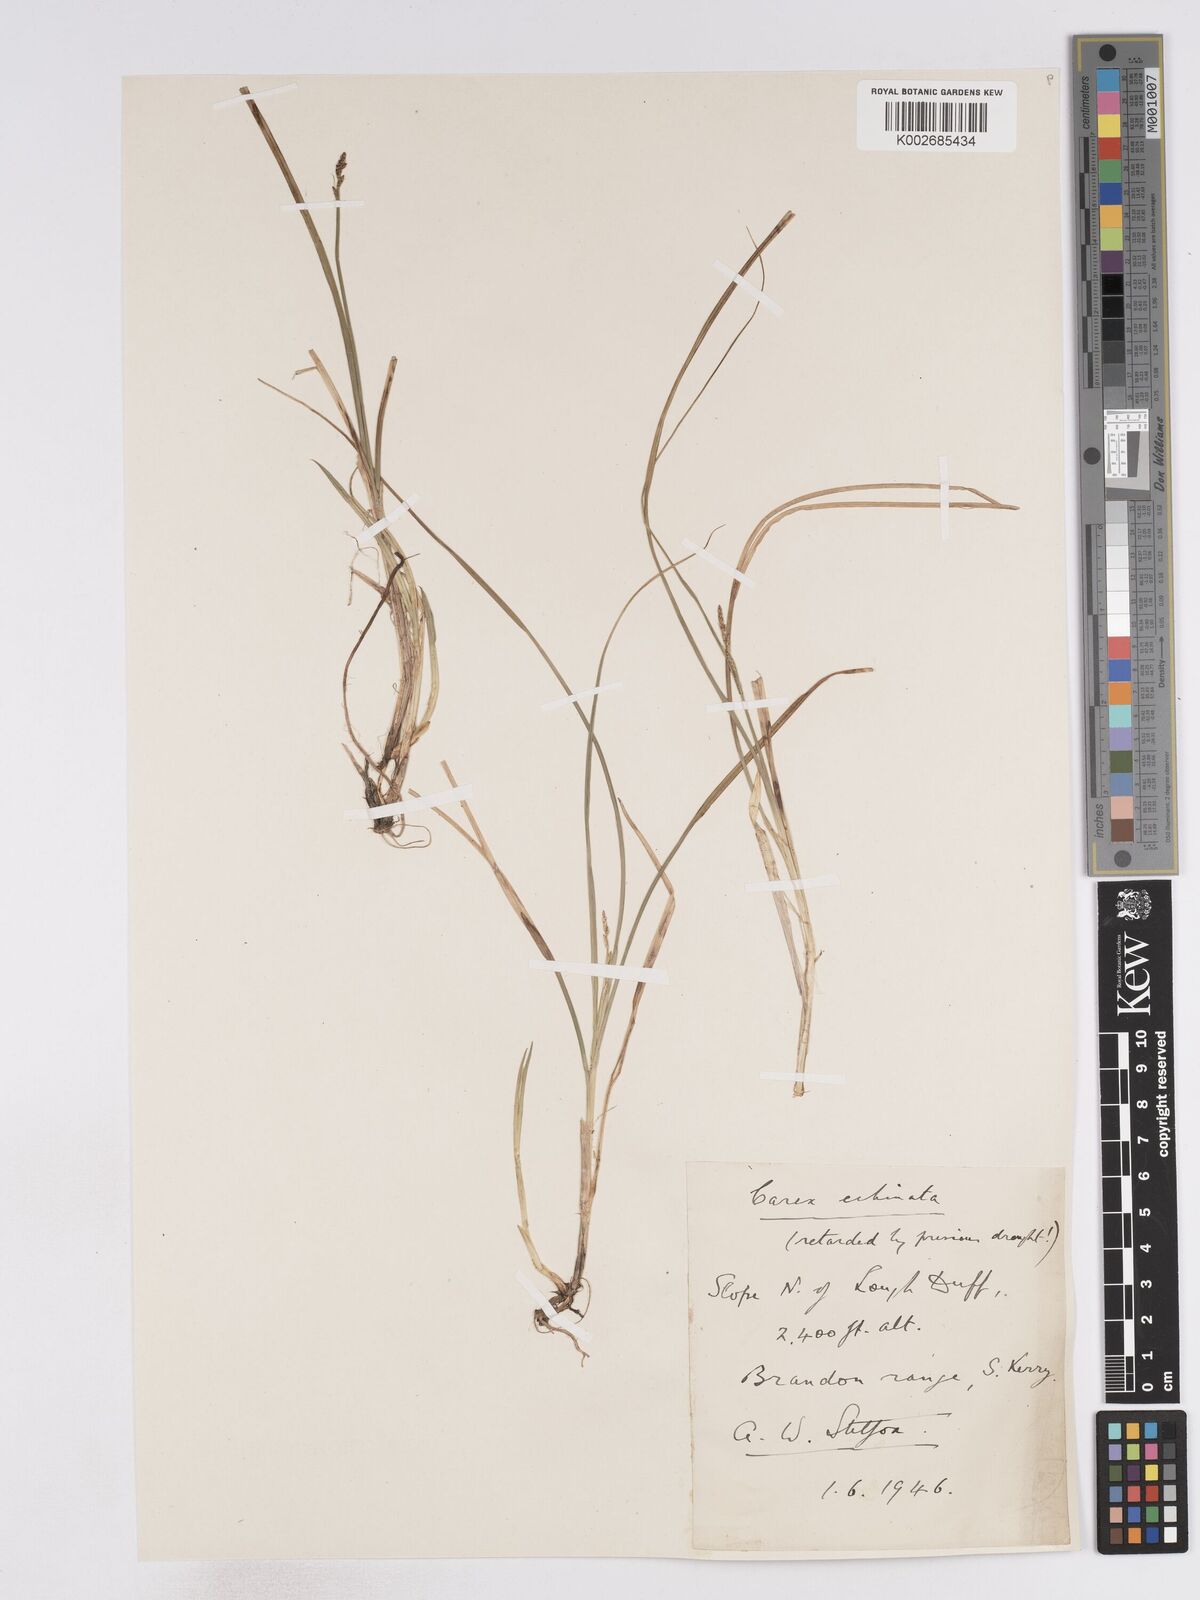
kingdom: Plantae
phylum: Tracheophyta
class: Liliopsida
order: Poales
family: Cyperaceae
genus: Carex
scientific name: Carex echinata
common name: Star sedge
